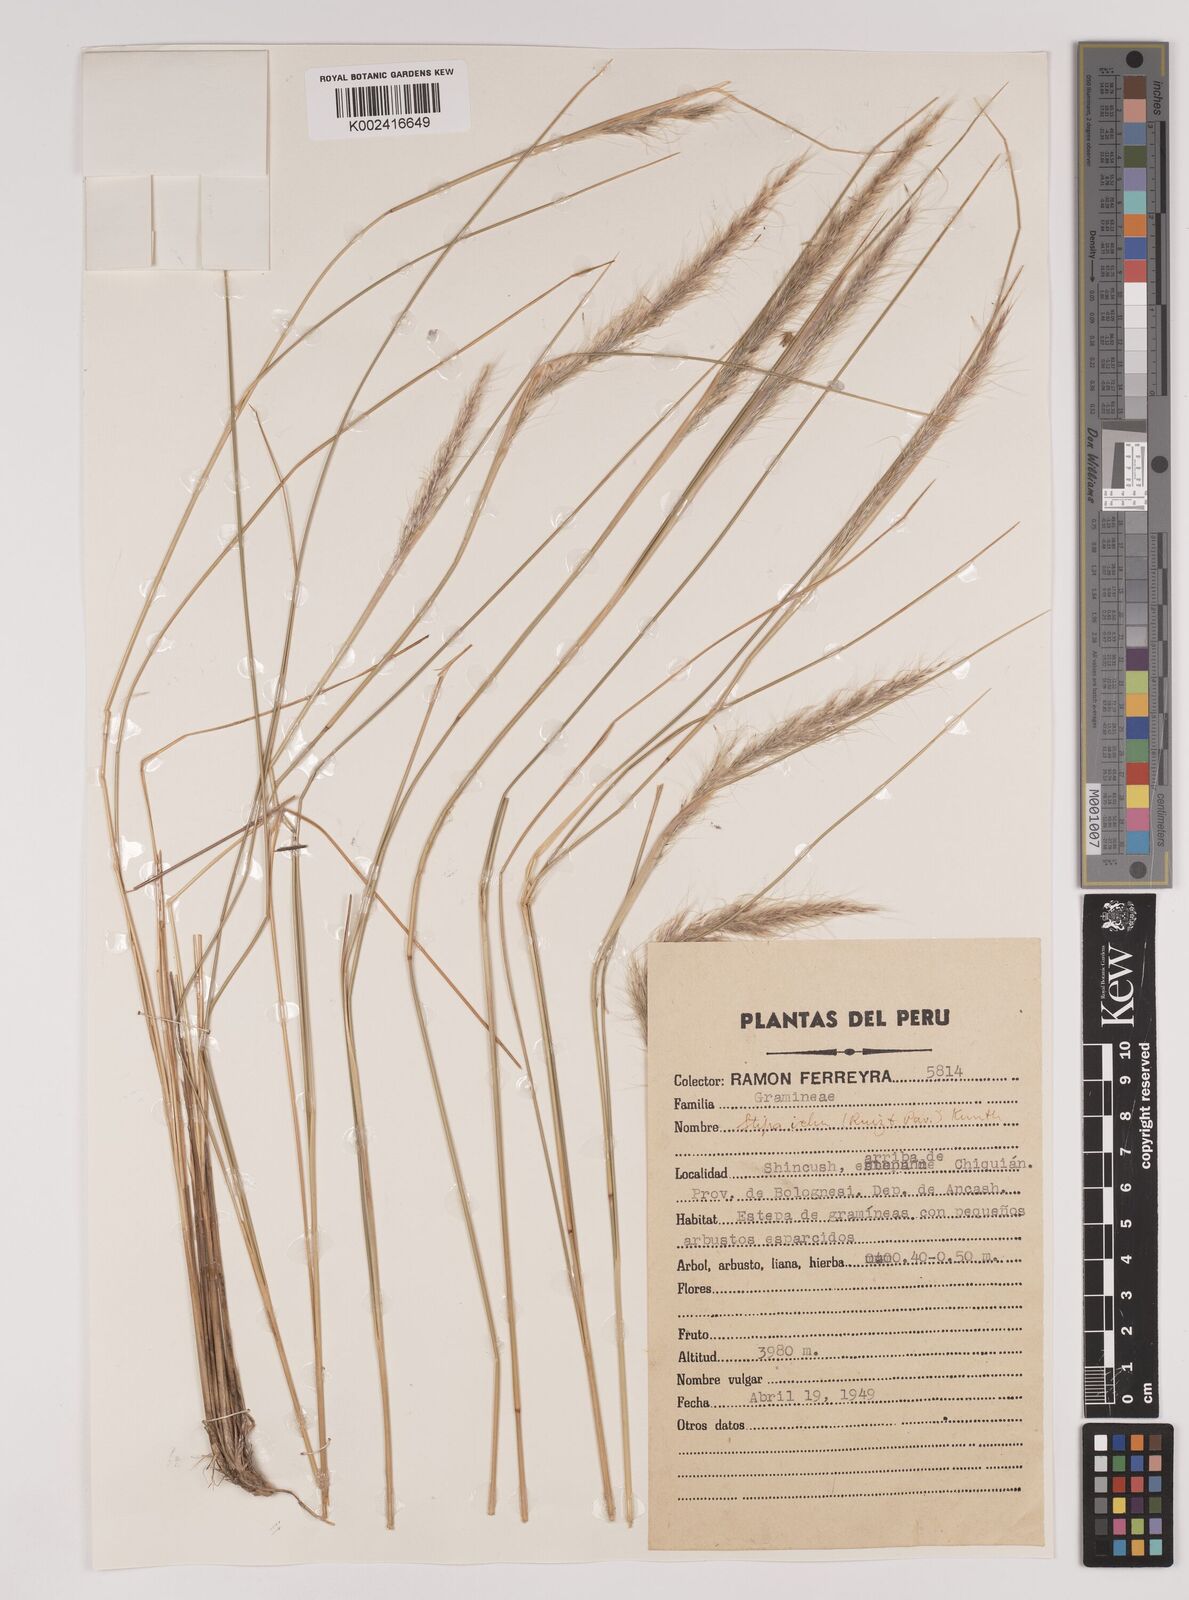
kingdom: Plantae
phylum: Tracheophyta
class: Liliopsida
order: Poales
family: Poaceae
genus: Stipa
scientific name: Stipa pungens
